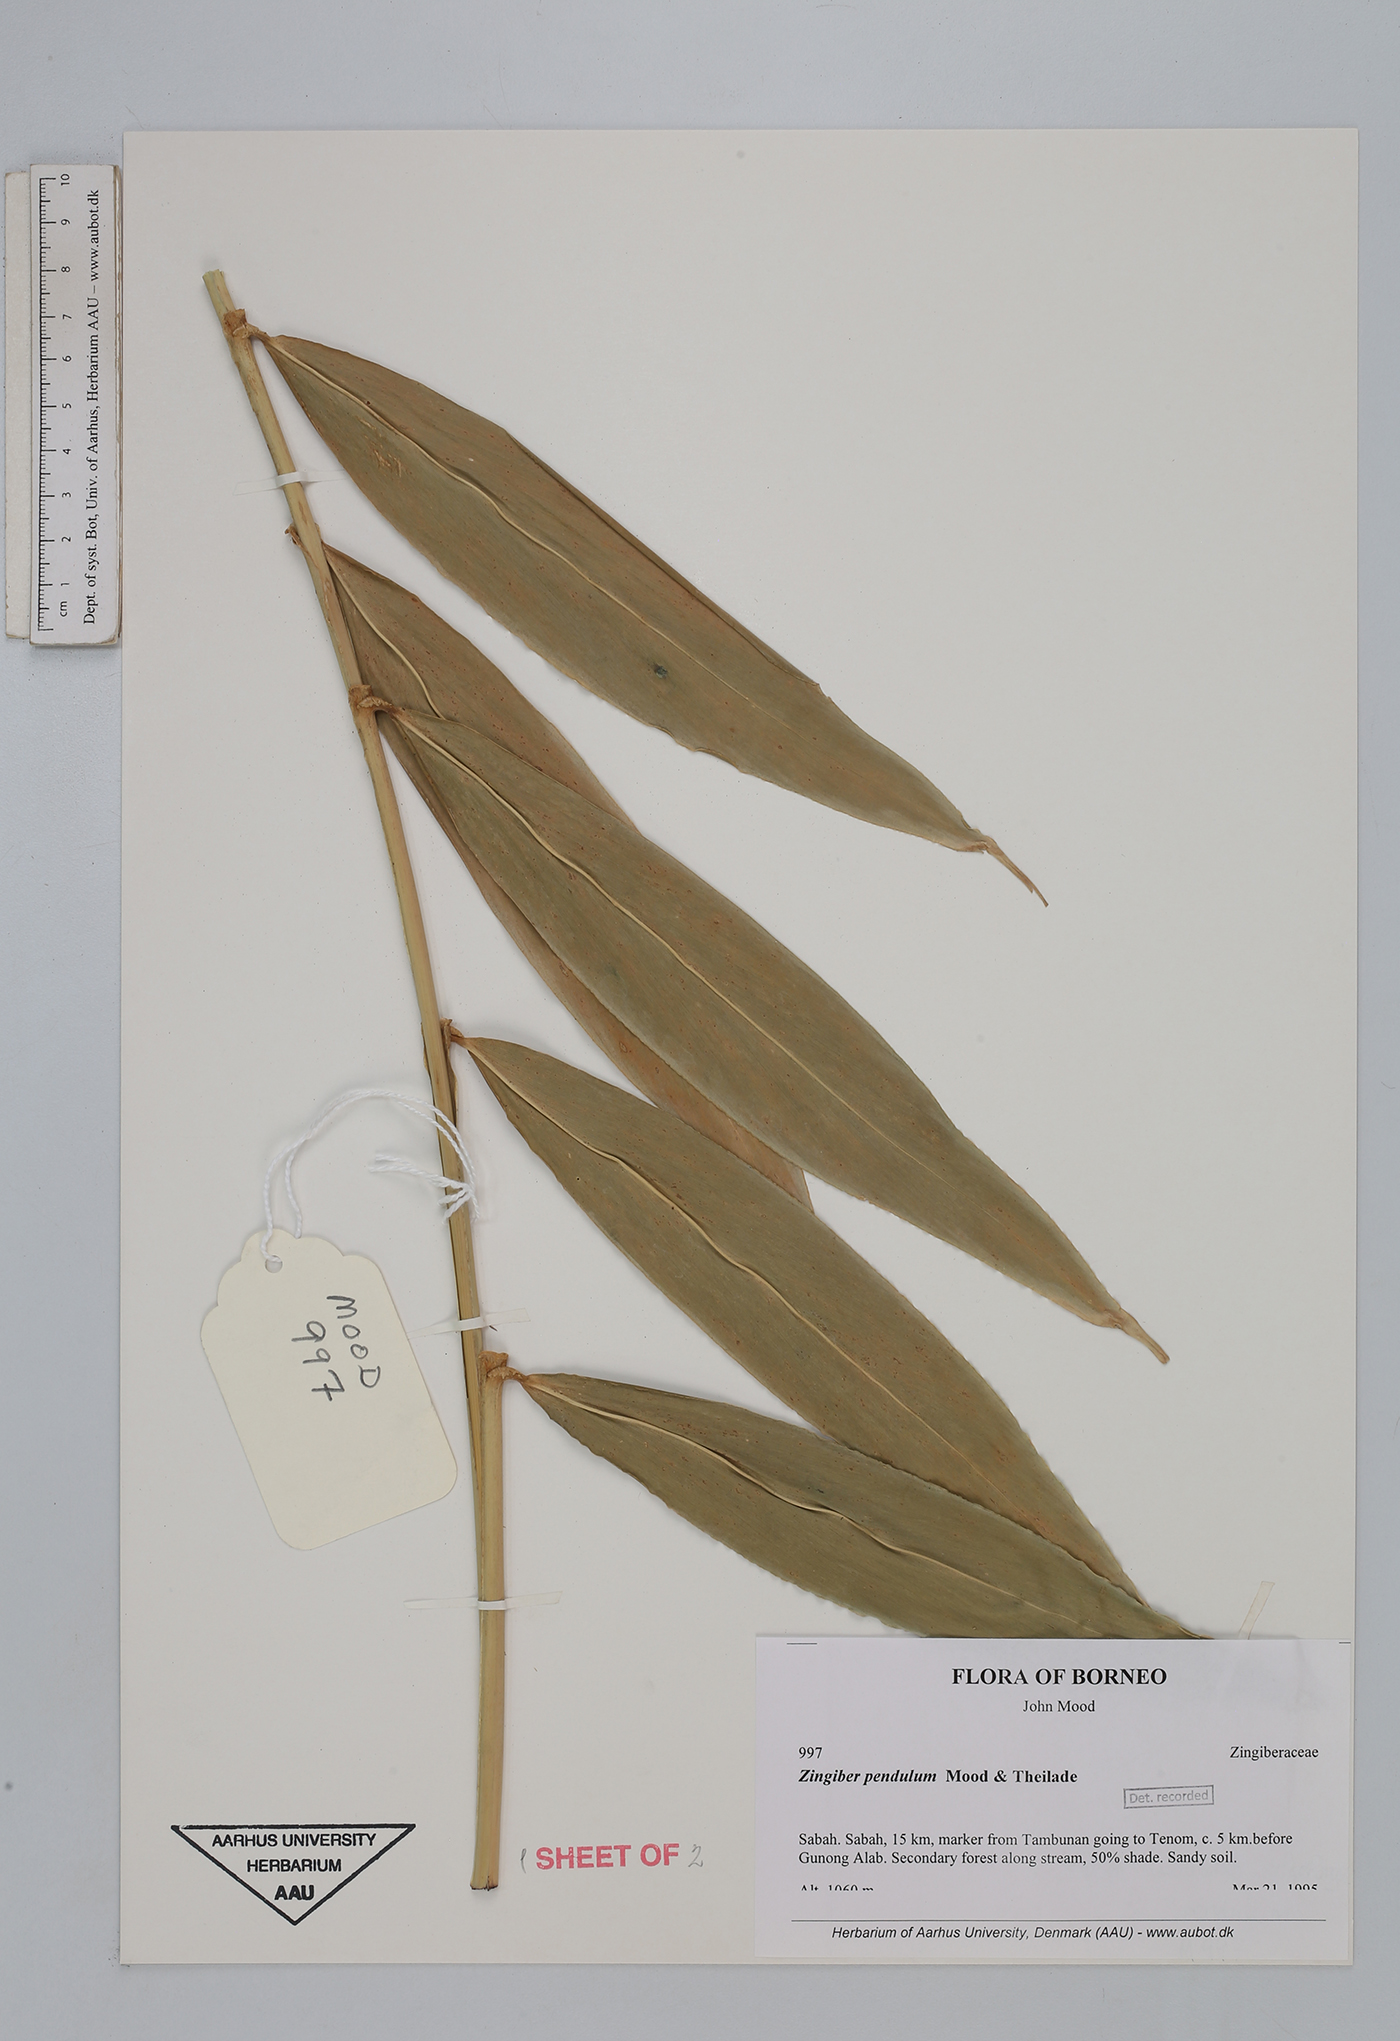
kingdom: Plantae
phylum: Tracheophyta
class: Liliopsida
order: Zingiberales
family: Zingiberaceae
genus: Zingiber
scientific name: Zingiber pendulum
